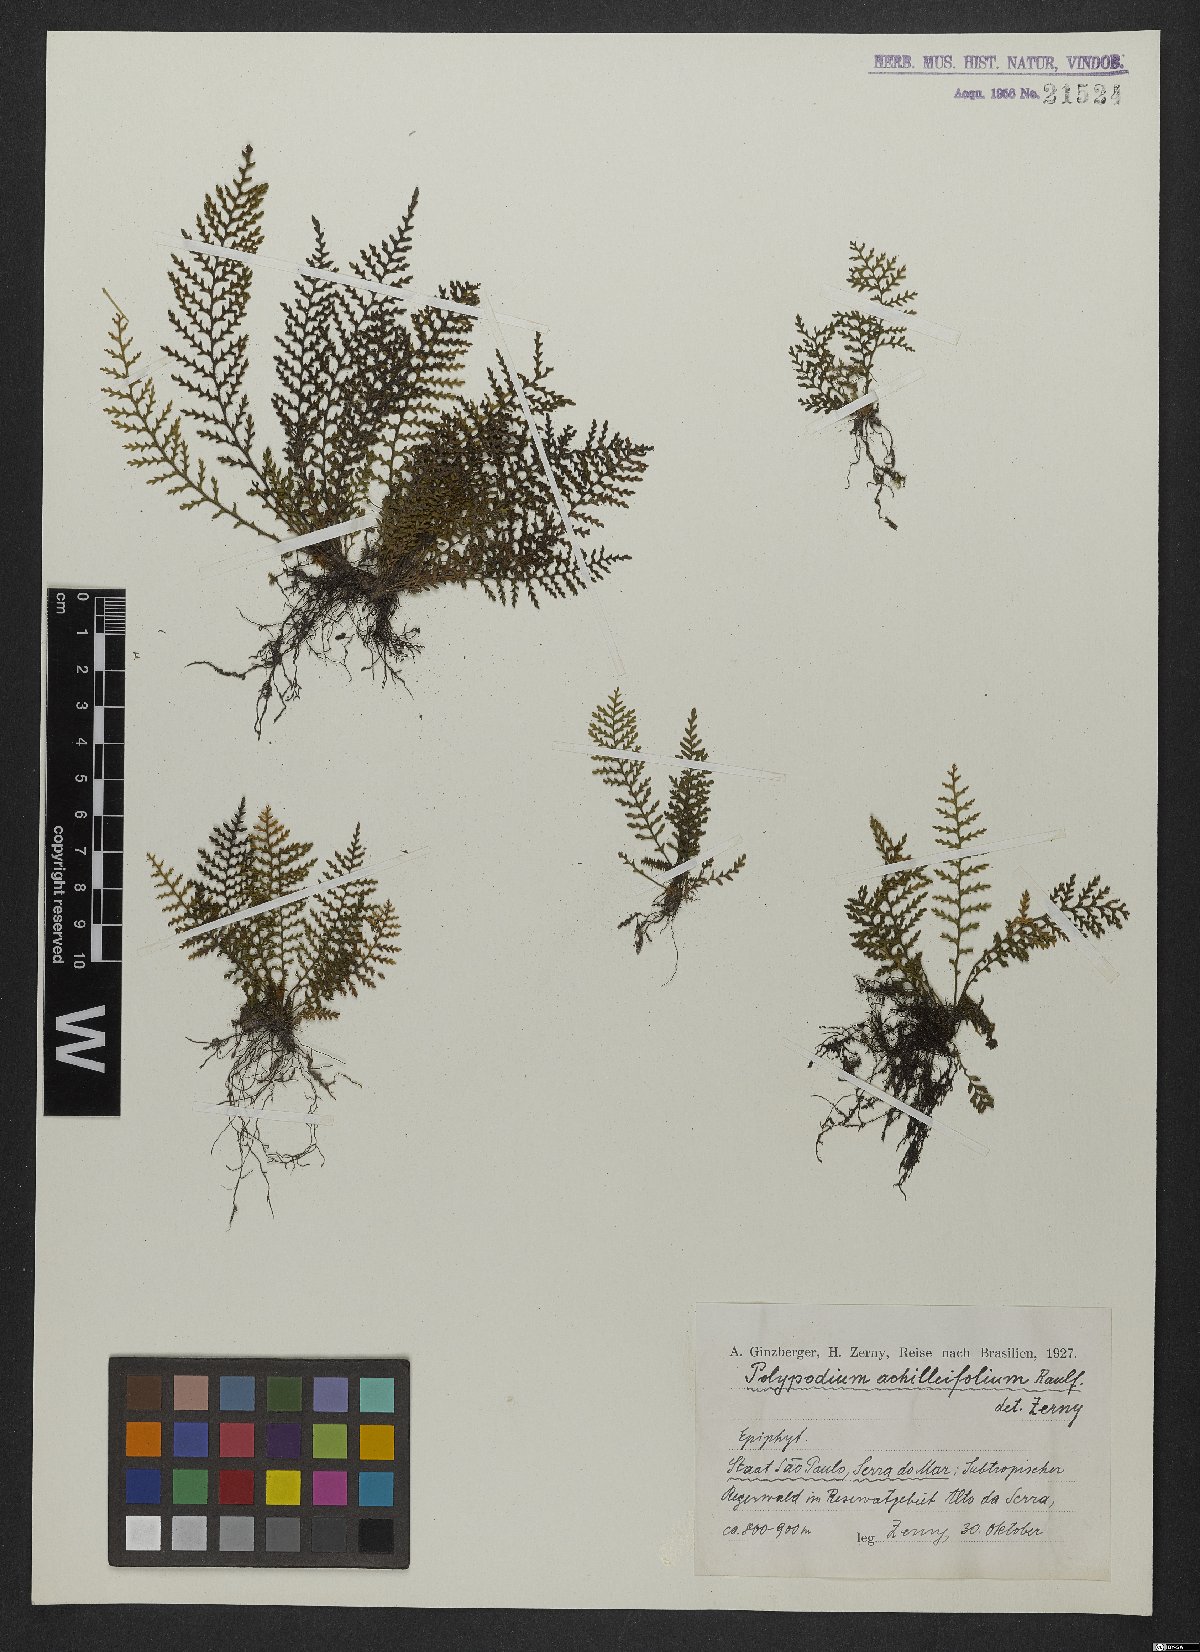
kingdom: Plantae
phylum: Tracheophyta
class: Polypodiopsida
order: Polypodiales
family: Polypodiaceae
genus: Moranopteris
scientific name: Moranopteris achilleifolia
